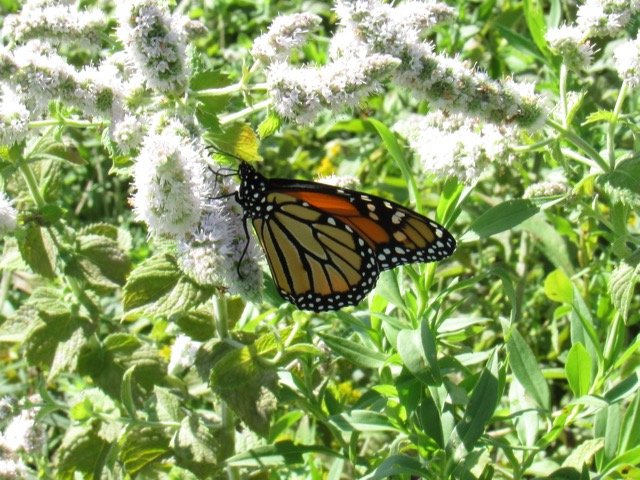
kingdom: Animalia
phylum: Arthropoda
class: Insecta
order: Lepidoptera
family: Nymphalidae
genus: Danaus
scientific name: Danaus plexippus
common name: Monarch
